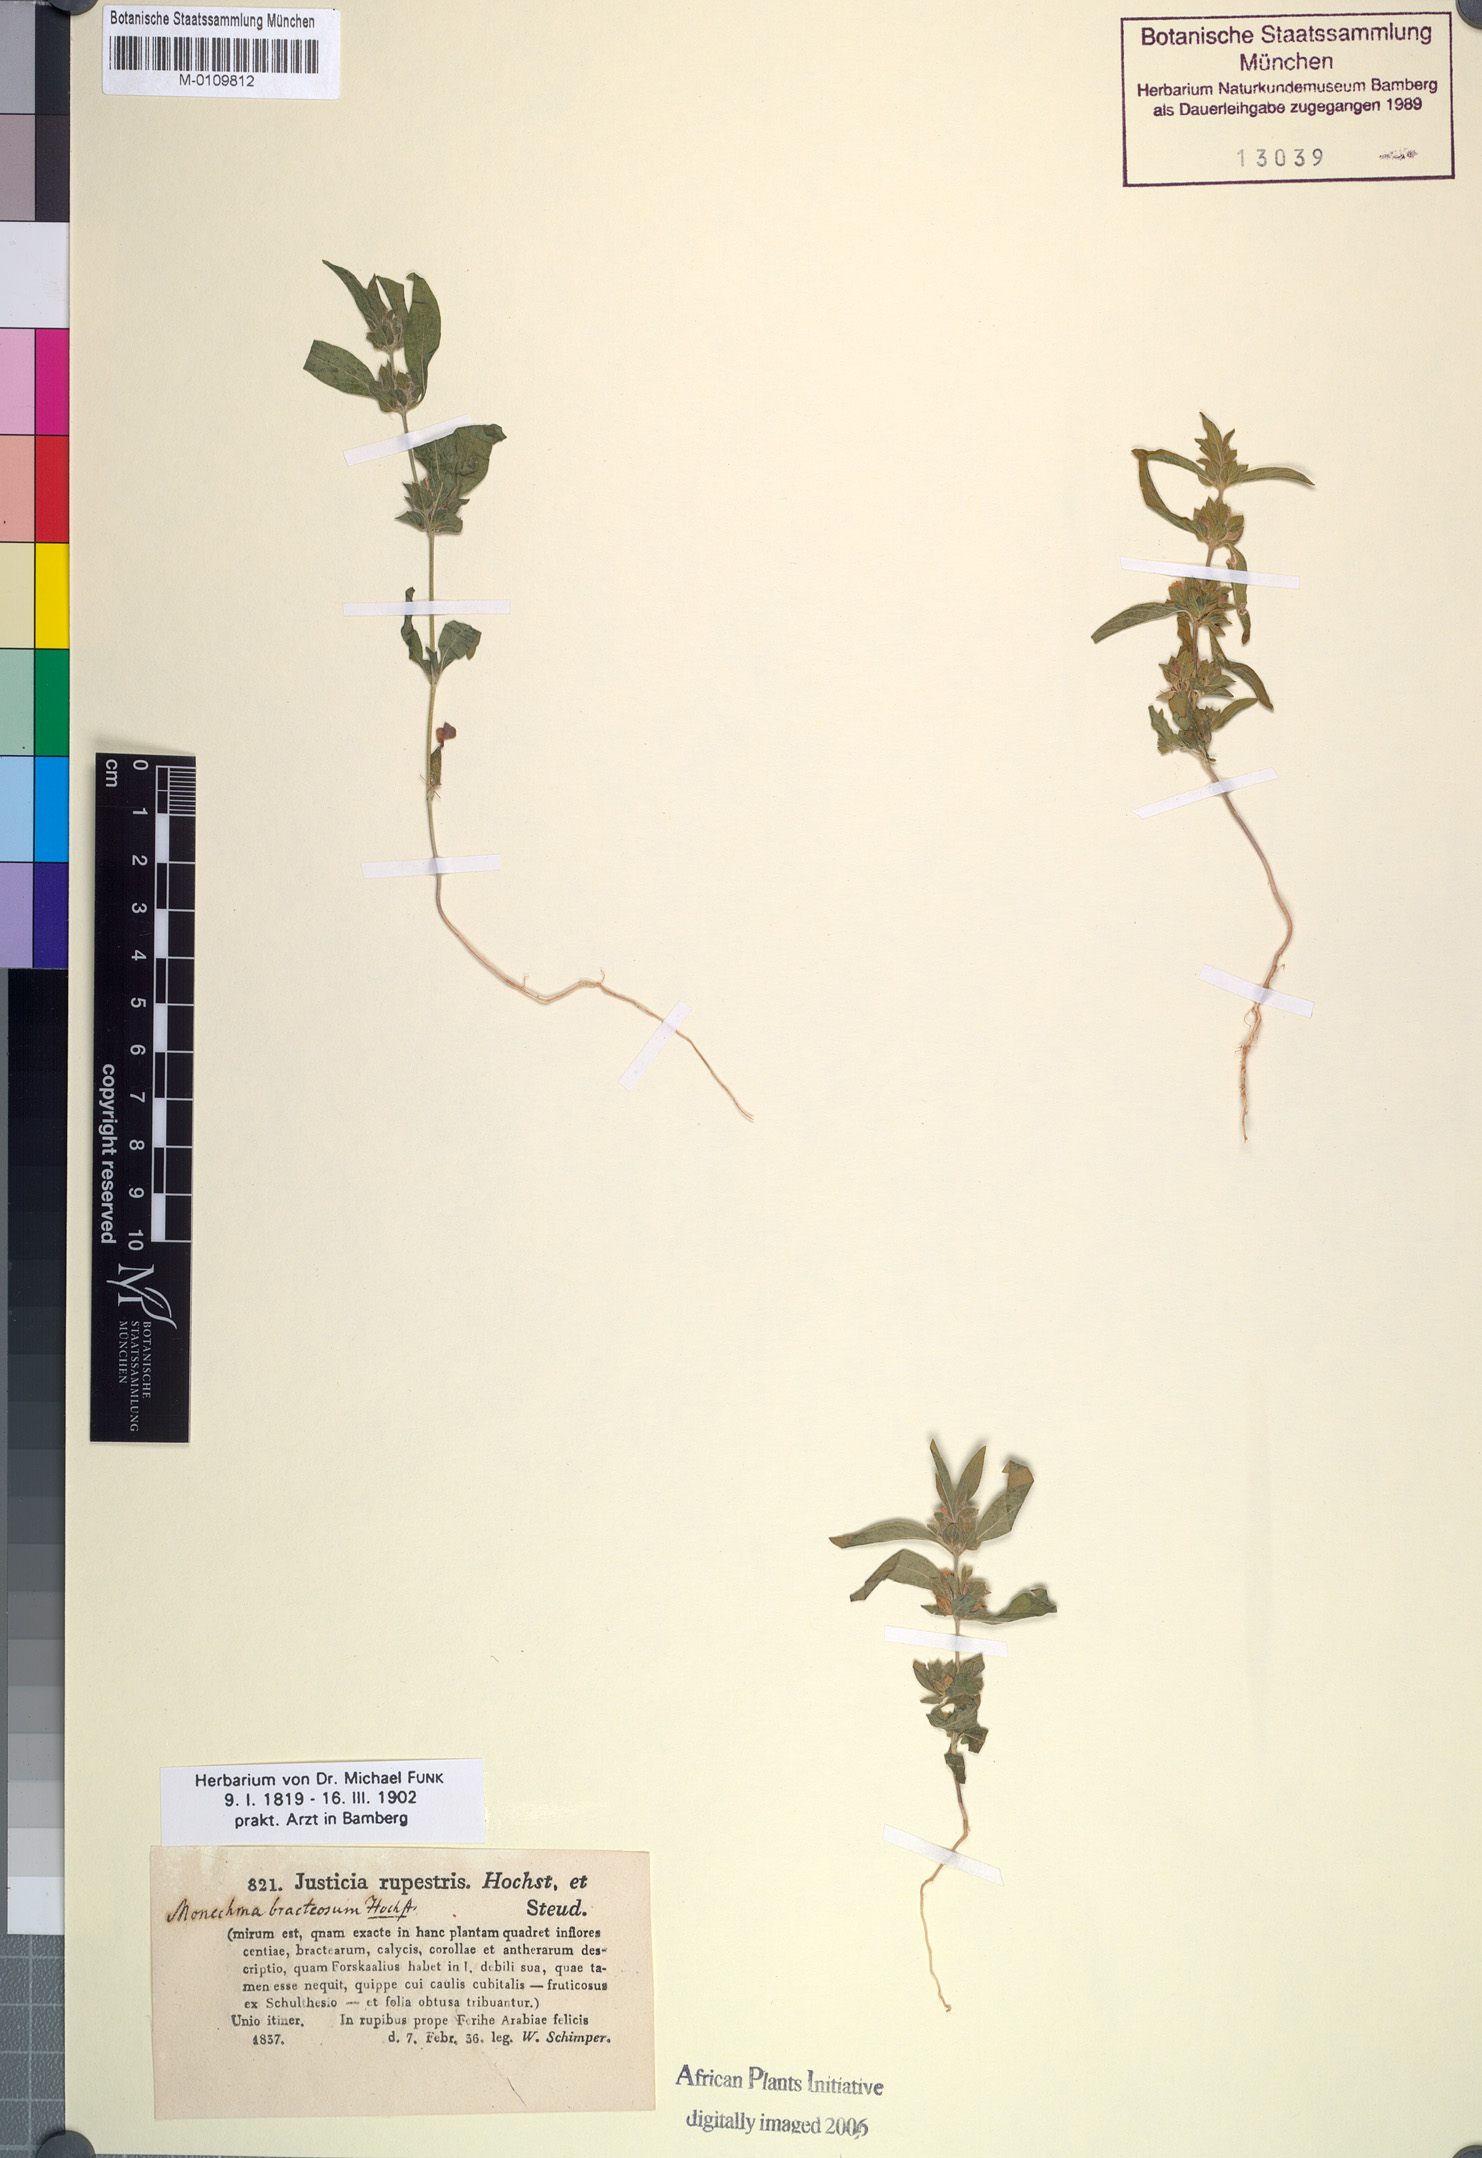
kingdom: Plantae
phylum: Tracheophyta
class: Magnoliopsida
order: Lamiales
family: Acanthaceae
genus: Monechma
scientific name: Monechma debile
